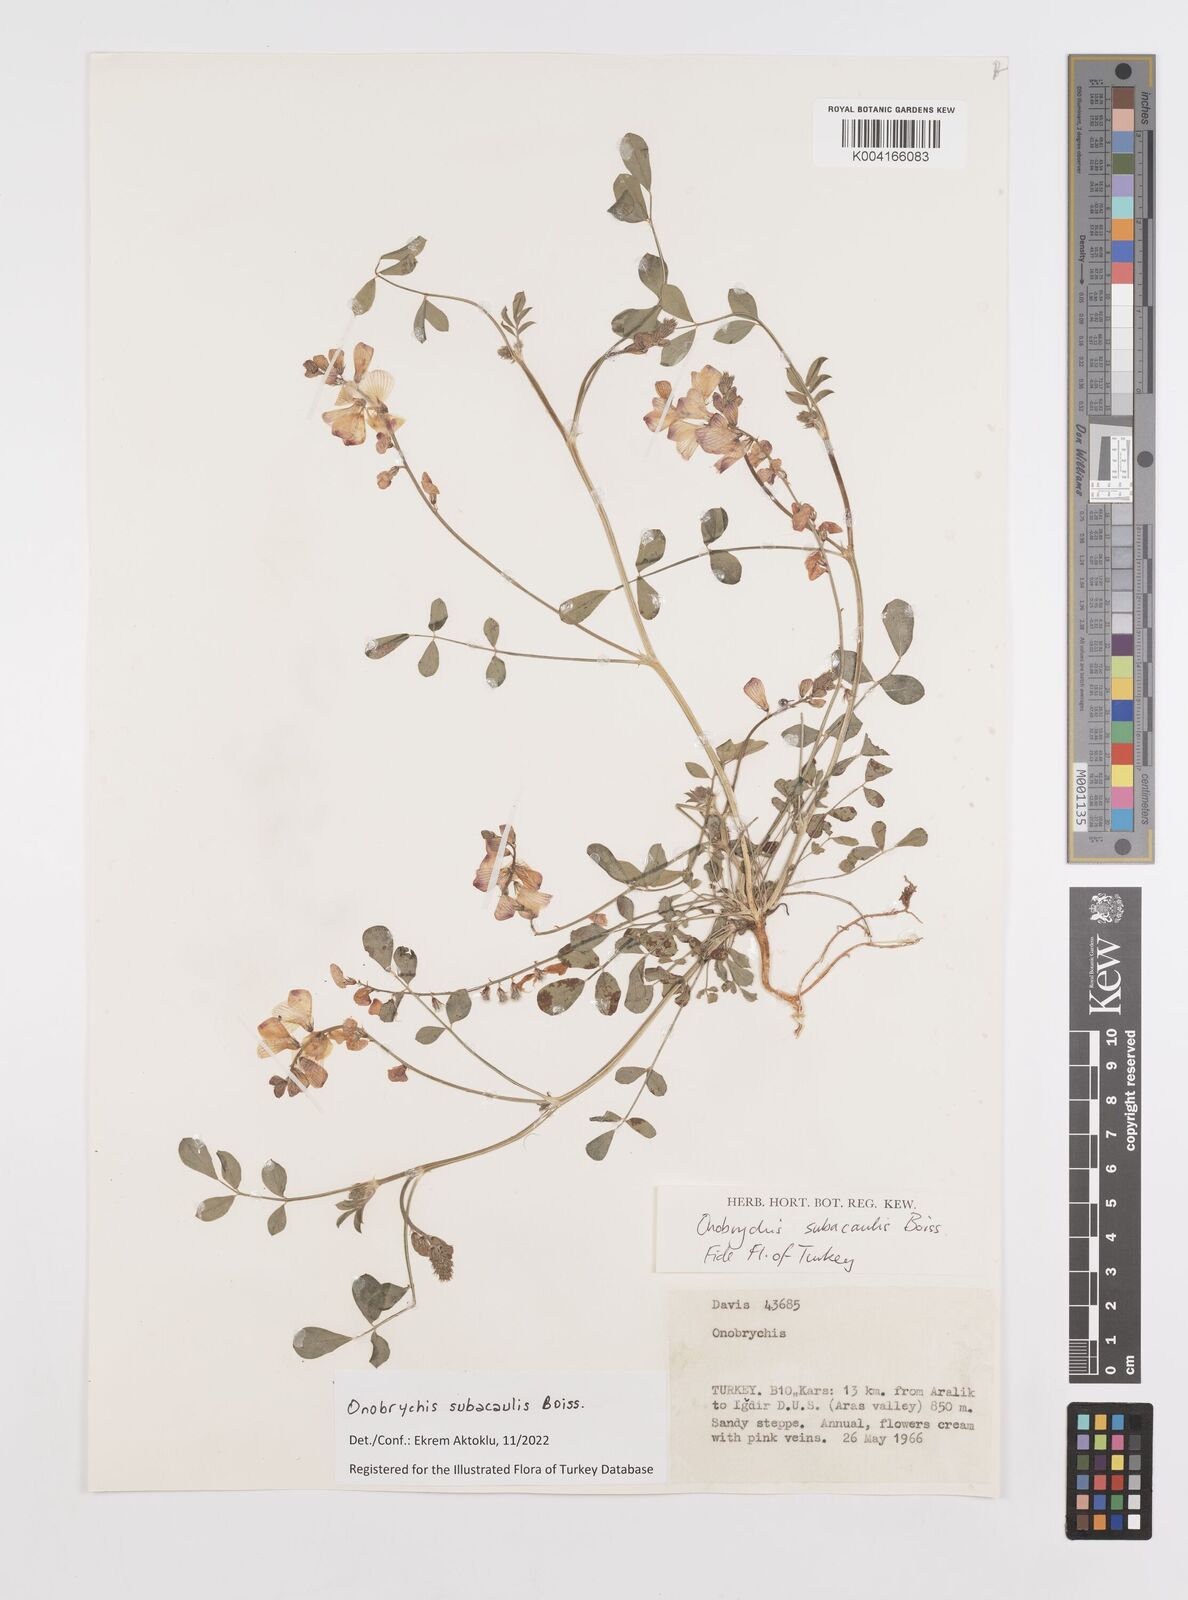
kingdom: Plantae
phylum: Tracheophyta
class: Magnoliopsida
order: Fabales
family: Fabaceae
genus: Onobrychis
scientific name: Onobrychis subacaulis
